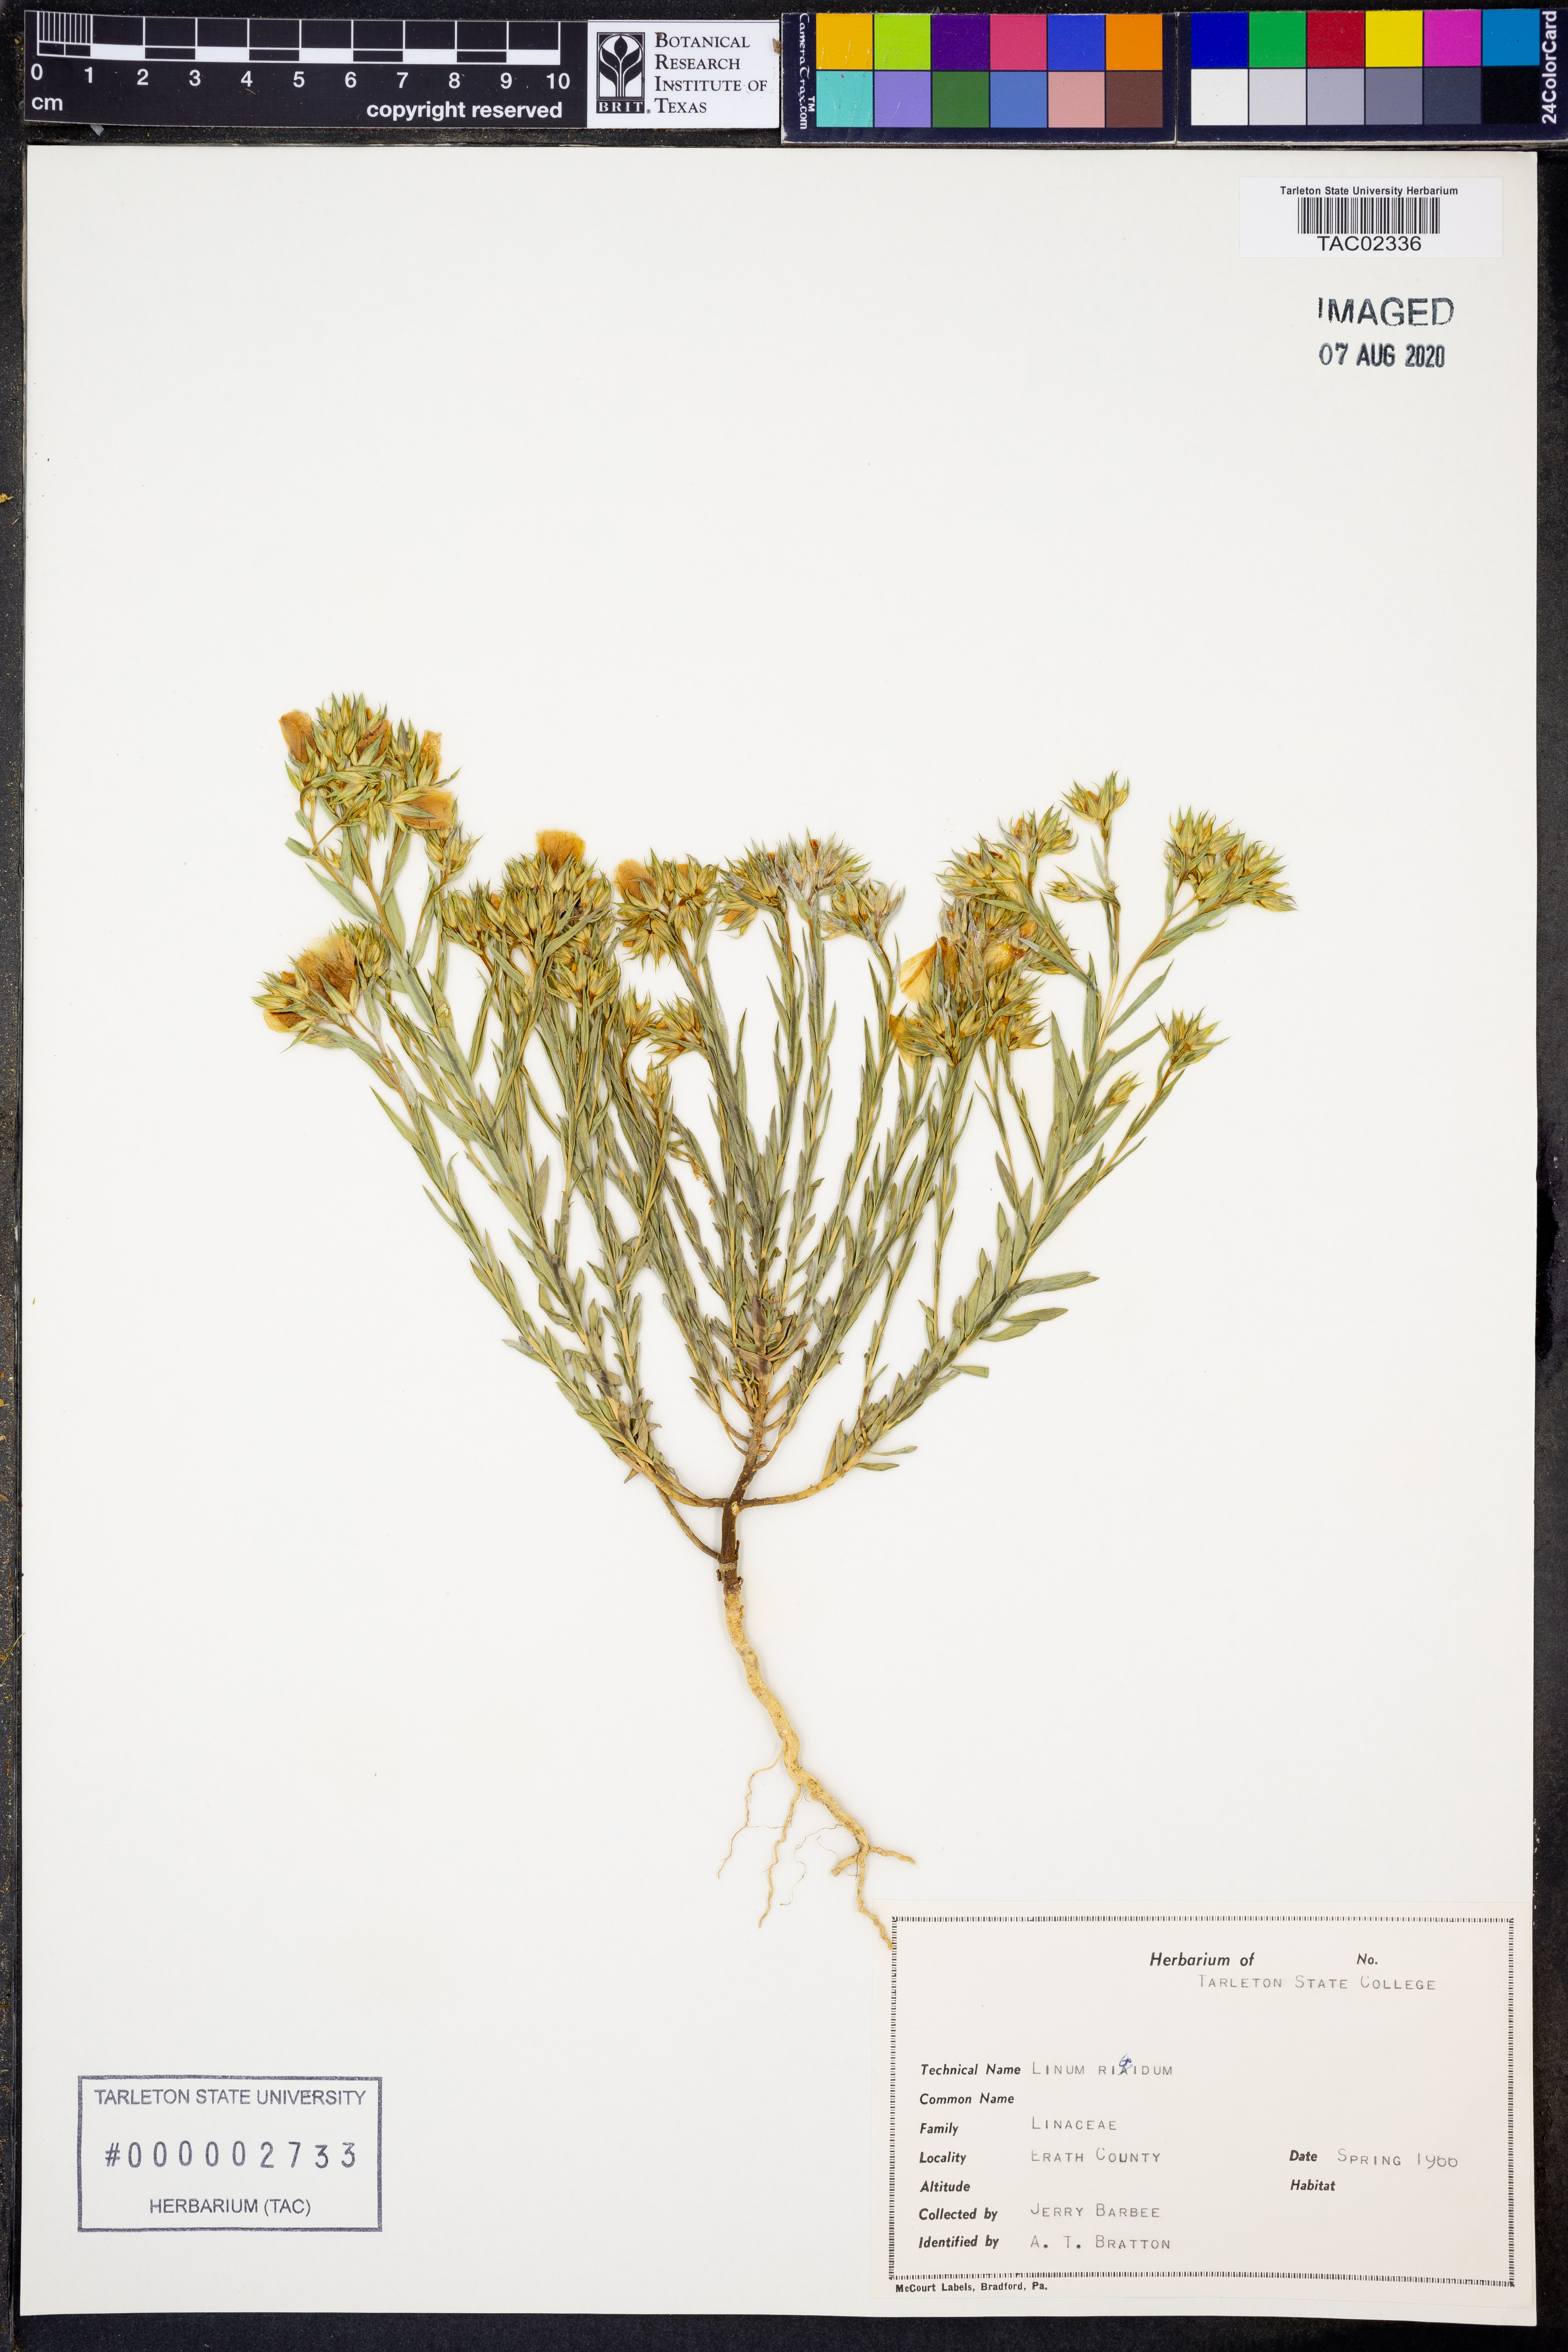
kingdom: Plantae
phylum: Tracheophyta
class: Magnoliopsida
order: Malpighiales
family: Linaceae
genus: Linum
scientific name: Linum rigidum
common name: Stiff-stem flax
